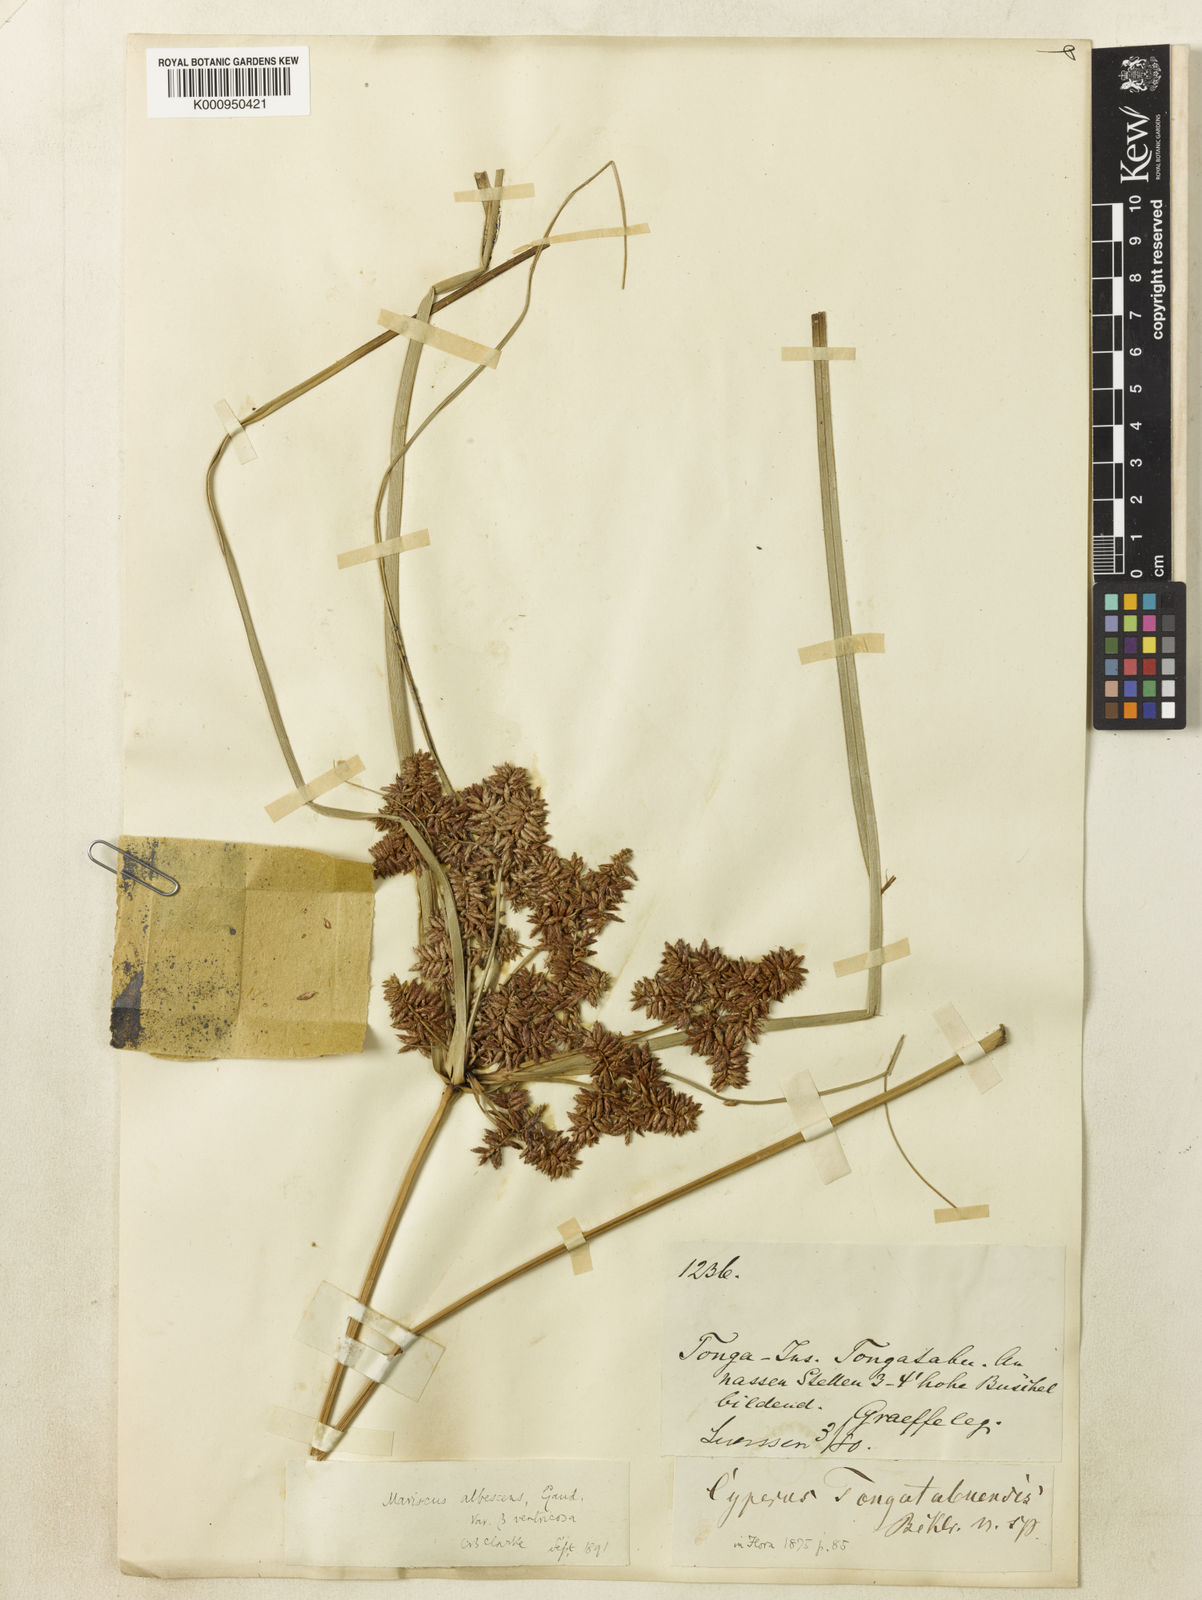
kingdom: Plantae
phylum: Tracheophyta
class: Liliopsida
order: Poales
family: Cyperaceae
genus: Cyperus
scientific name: Cyperus javanicus
